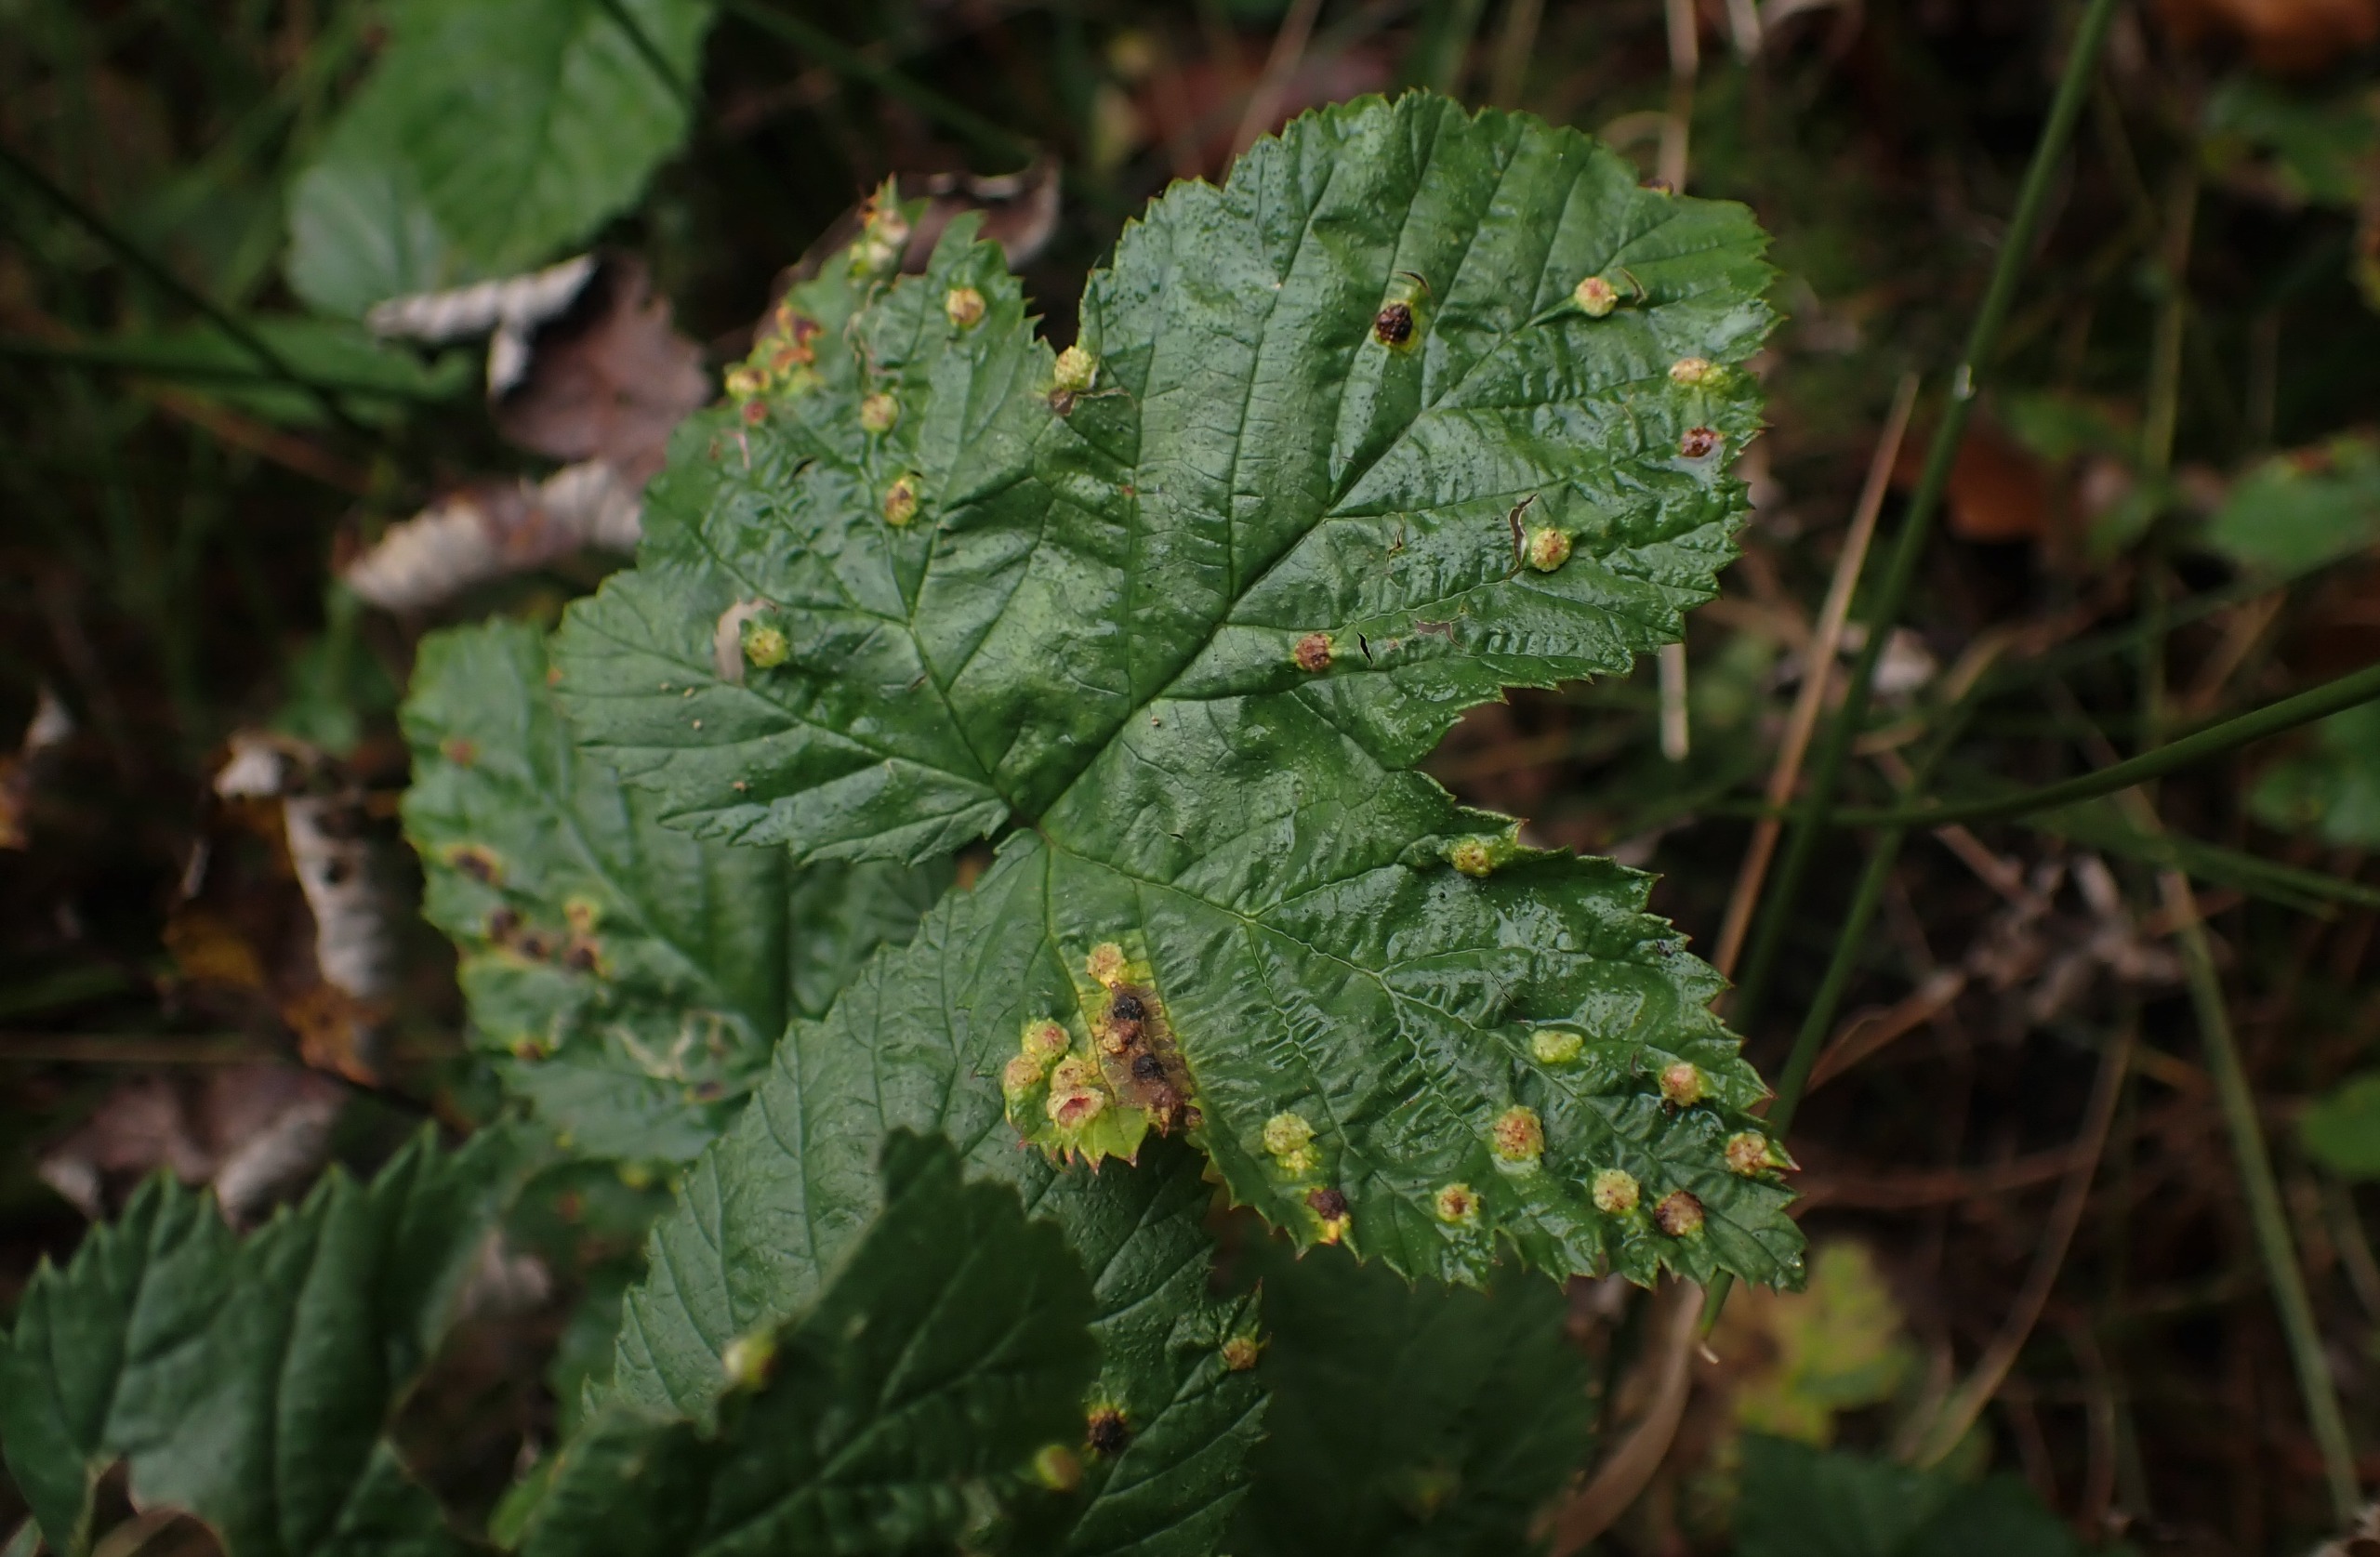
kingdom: Animalia
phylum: Arthropoda
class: Insecta
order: Diptera
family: Cecidomyiidae
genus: Dasineura
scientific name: Dasineura ulmaria
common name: Mjødurtgalmyg
